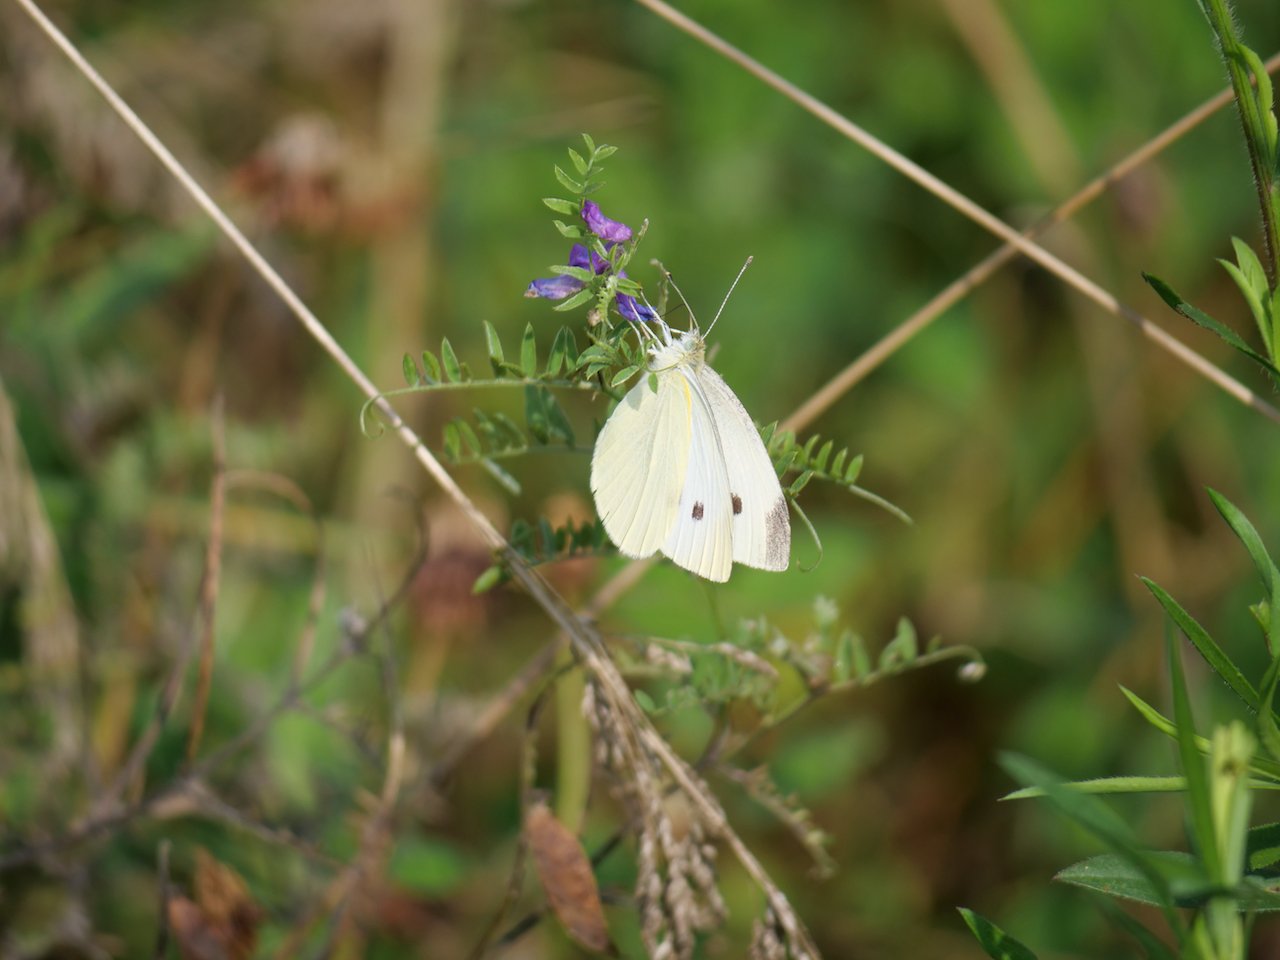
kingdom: Animalia
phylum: Arthropoda
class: Insecta
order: Lepidoptera
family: Pieridae
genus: Pieris
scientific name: Pieris rapae
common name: Cabbage White
